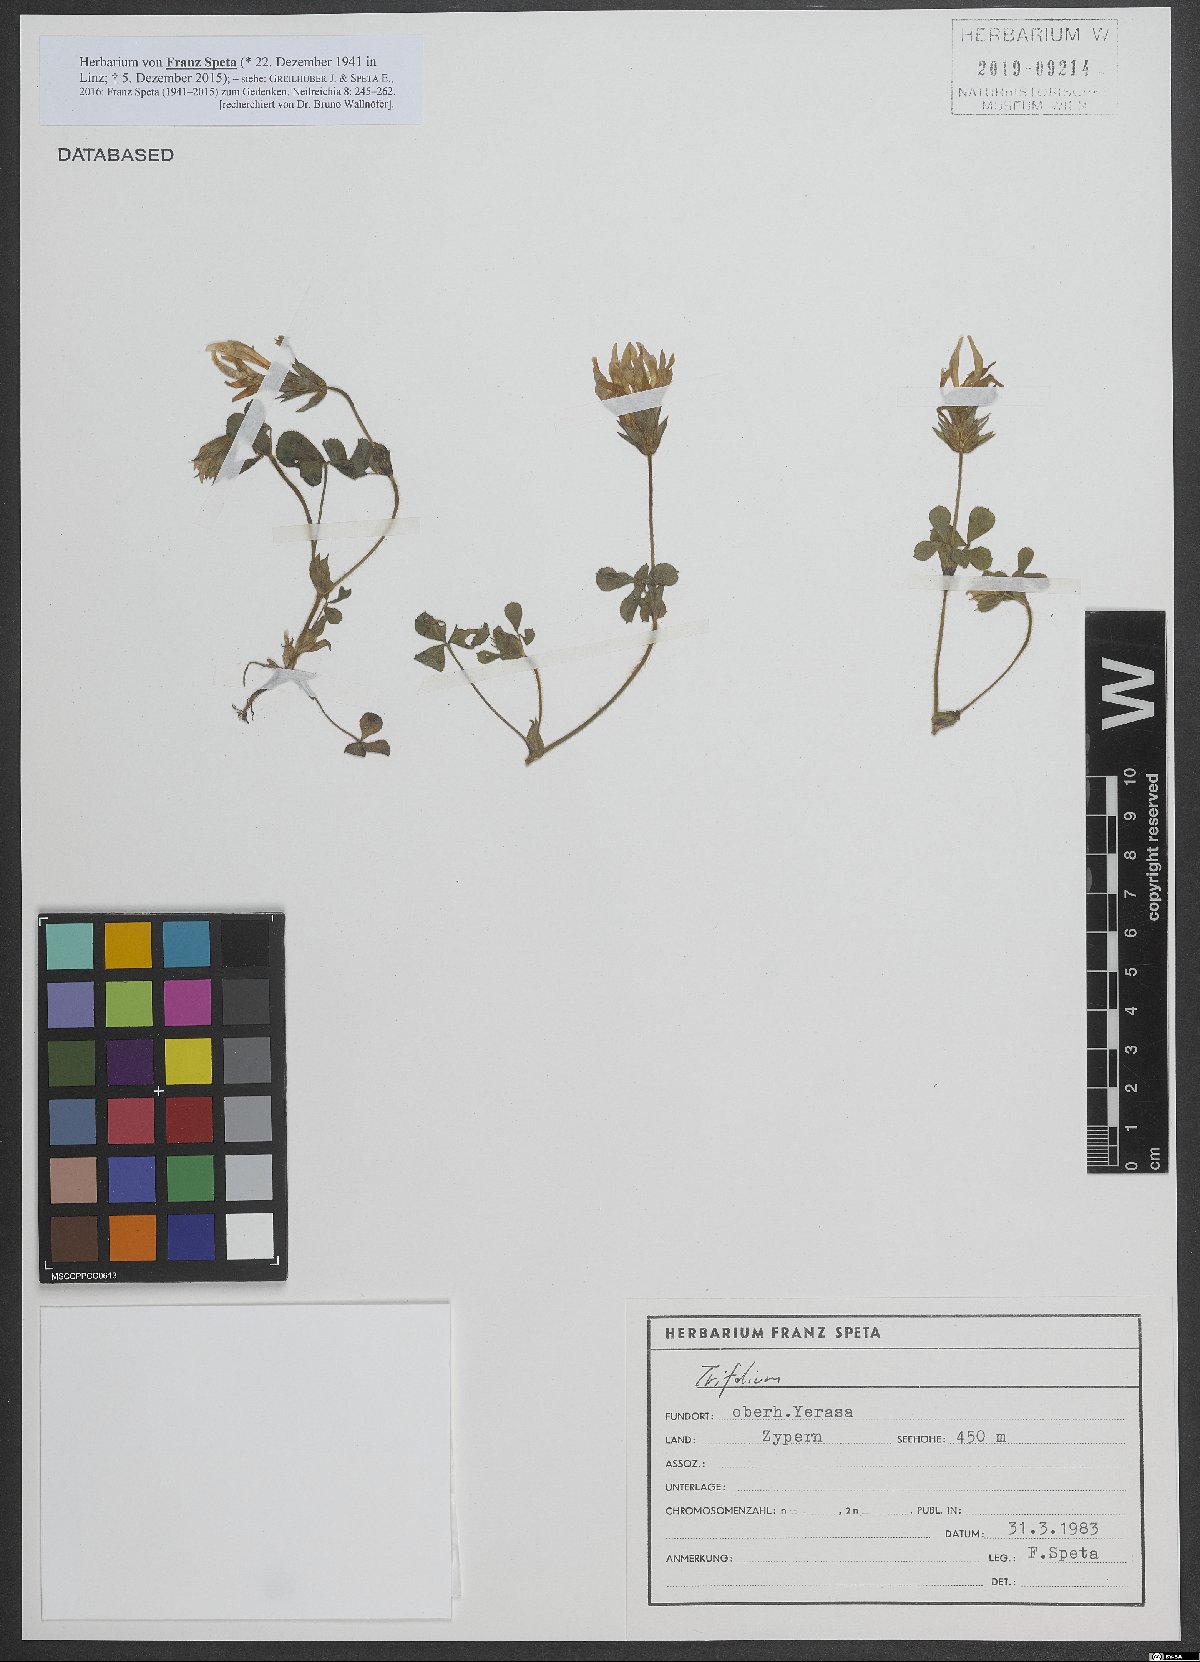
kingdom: Plantae
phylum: Tracheophyta
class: Magnoliopsida
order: Fabales
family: Fabaceae
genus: Trifolium
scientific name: Trifolium clypeatum
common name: Shield clover
